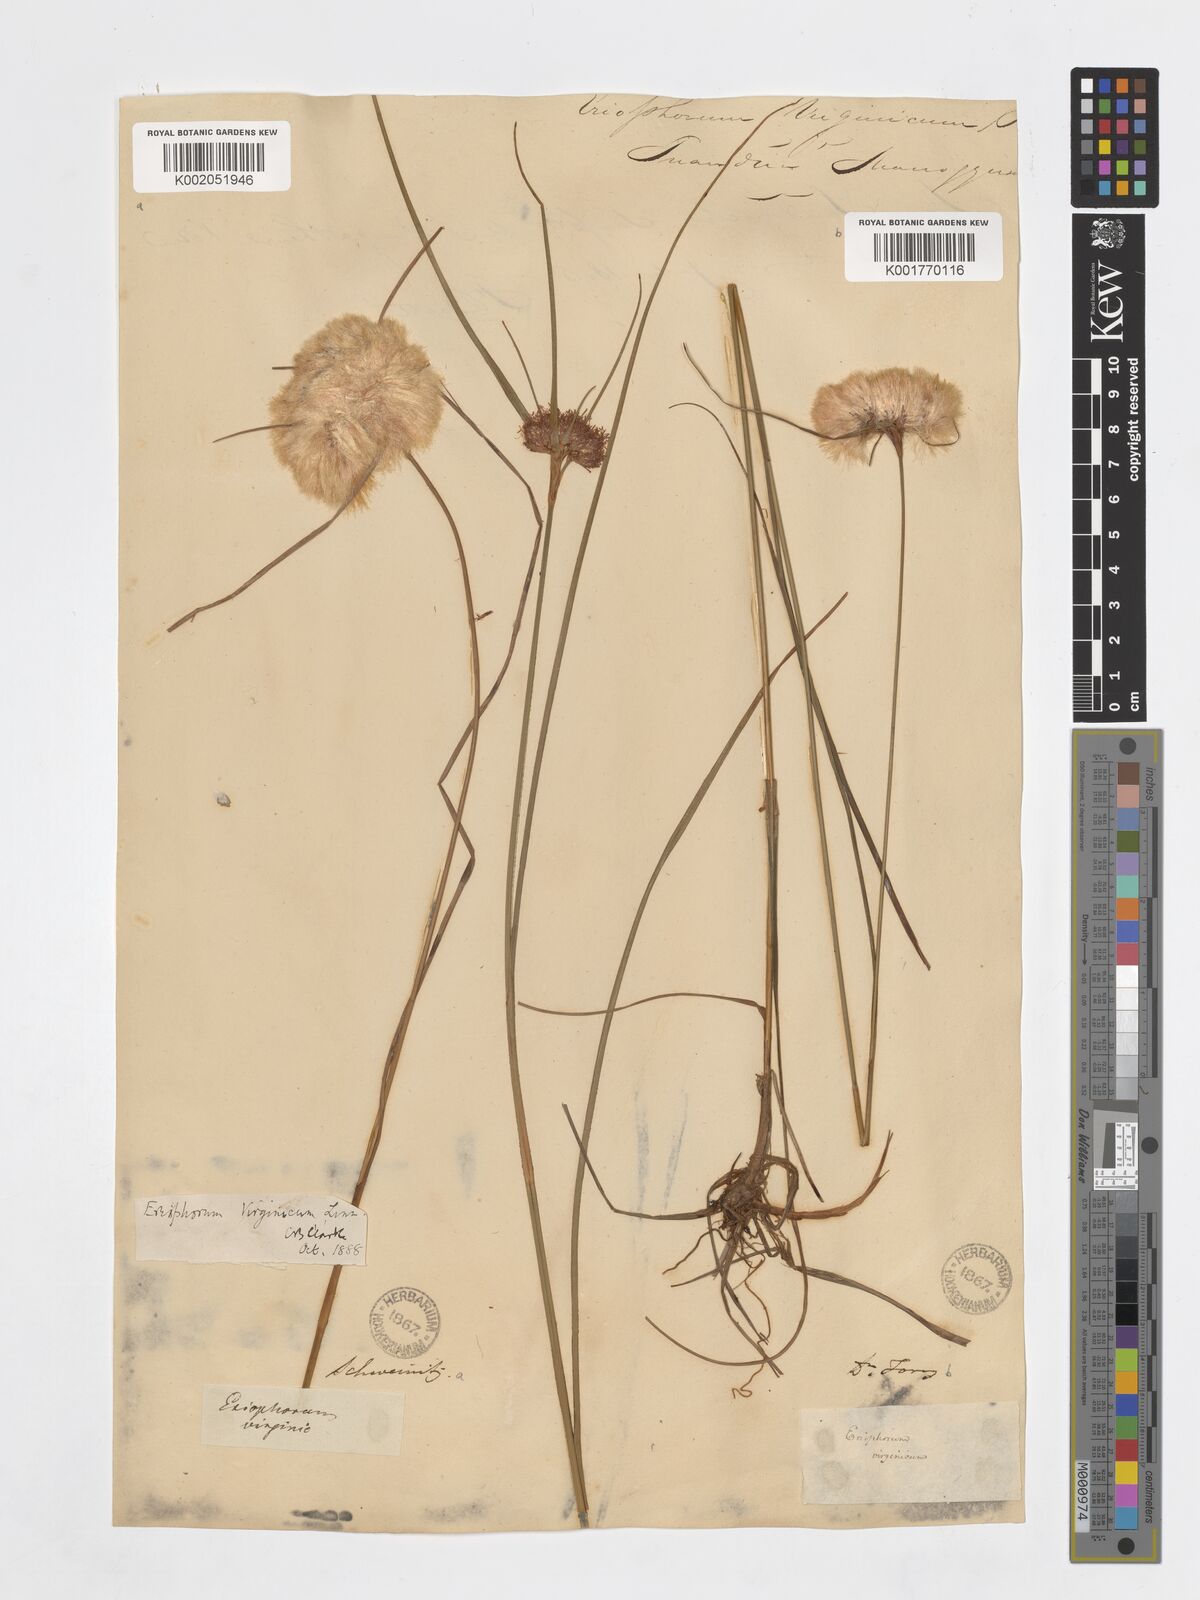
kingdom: Plantae
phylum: Tracheophyta
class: Liliopsida
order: Poales
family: Cyperaceae
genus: Eriophorum
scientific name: Eriophorum virginicum
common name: Tawny cottongrass
